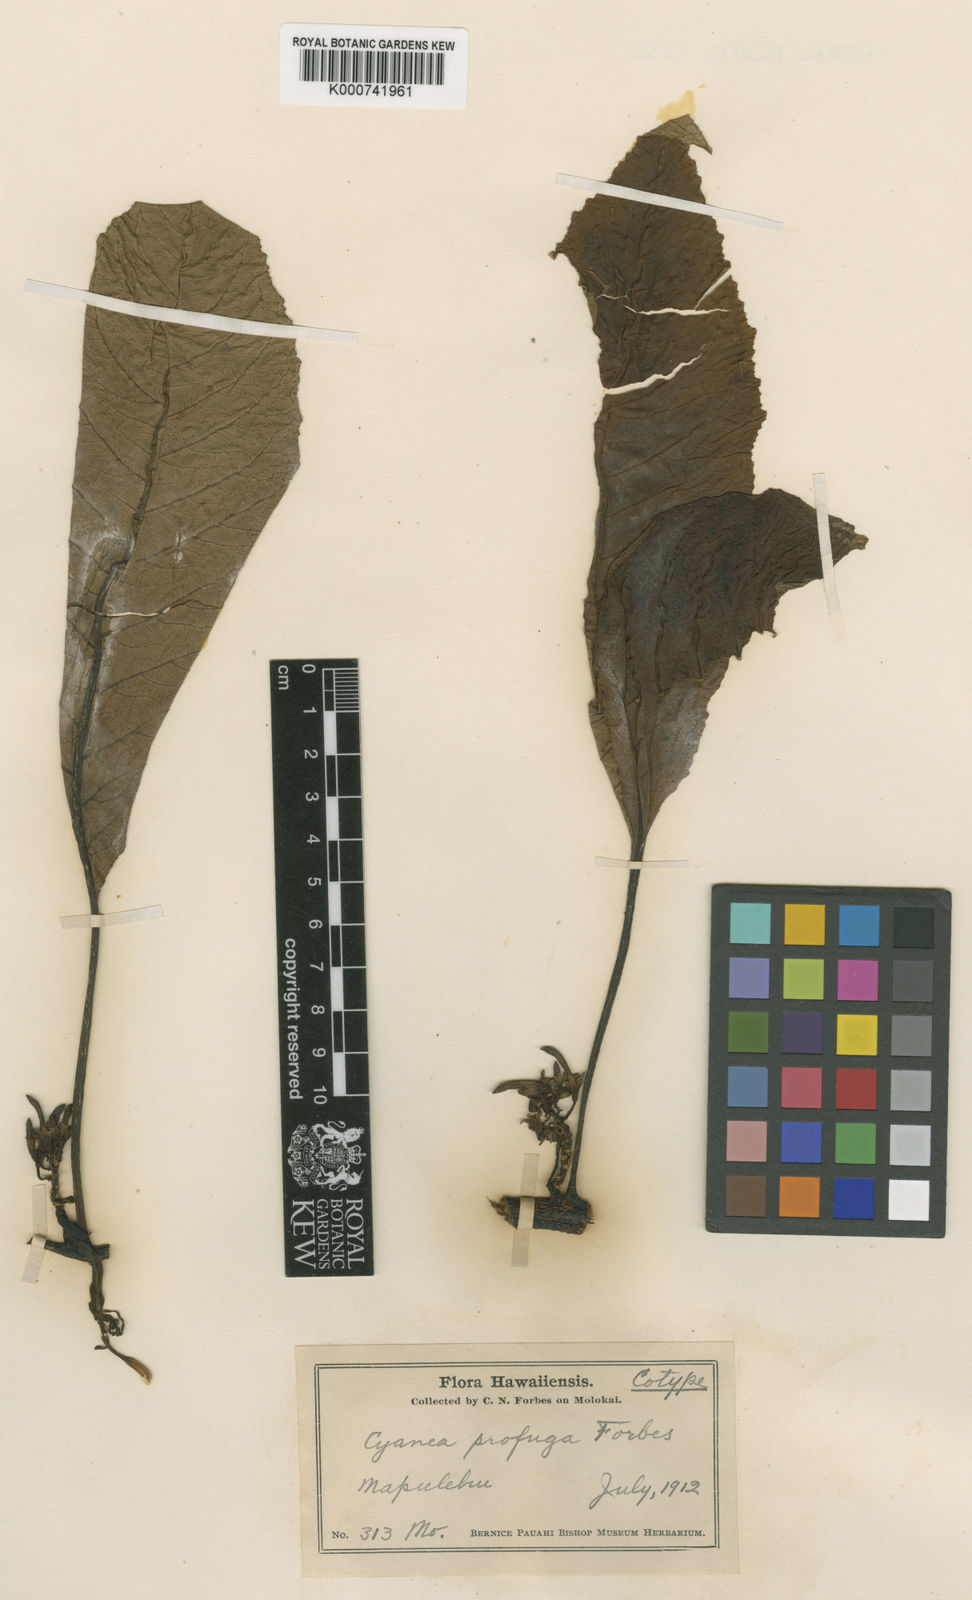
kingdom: Plantae
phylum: Tracheophyta
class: Magnoliopsida
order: Asterales
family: Campanulaceae
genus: Cyanea
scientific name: Cyanea profuga
